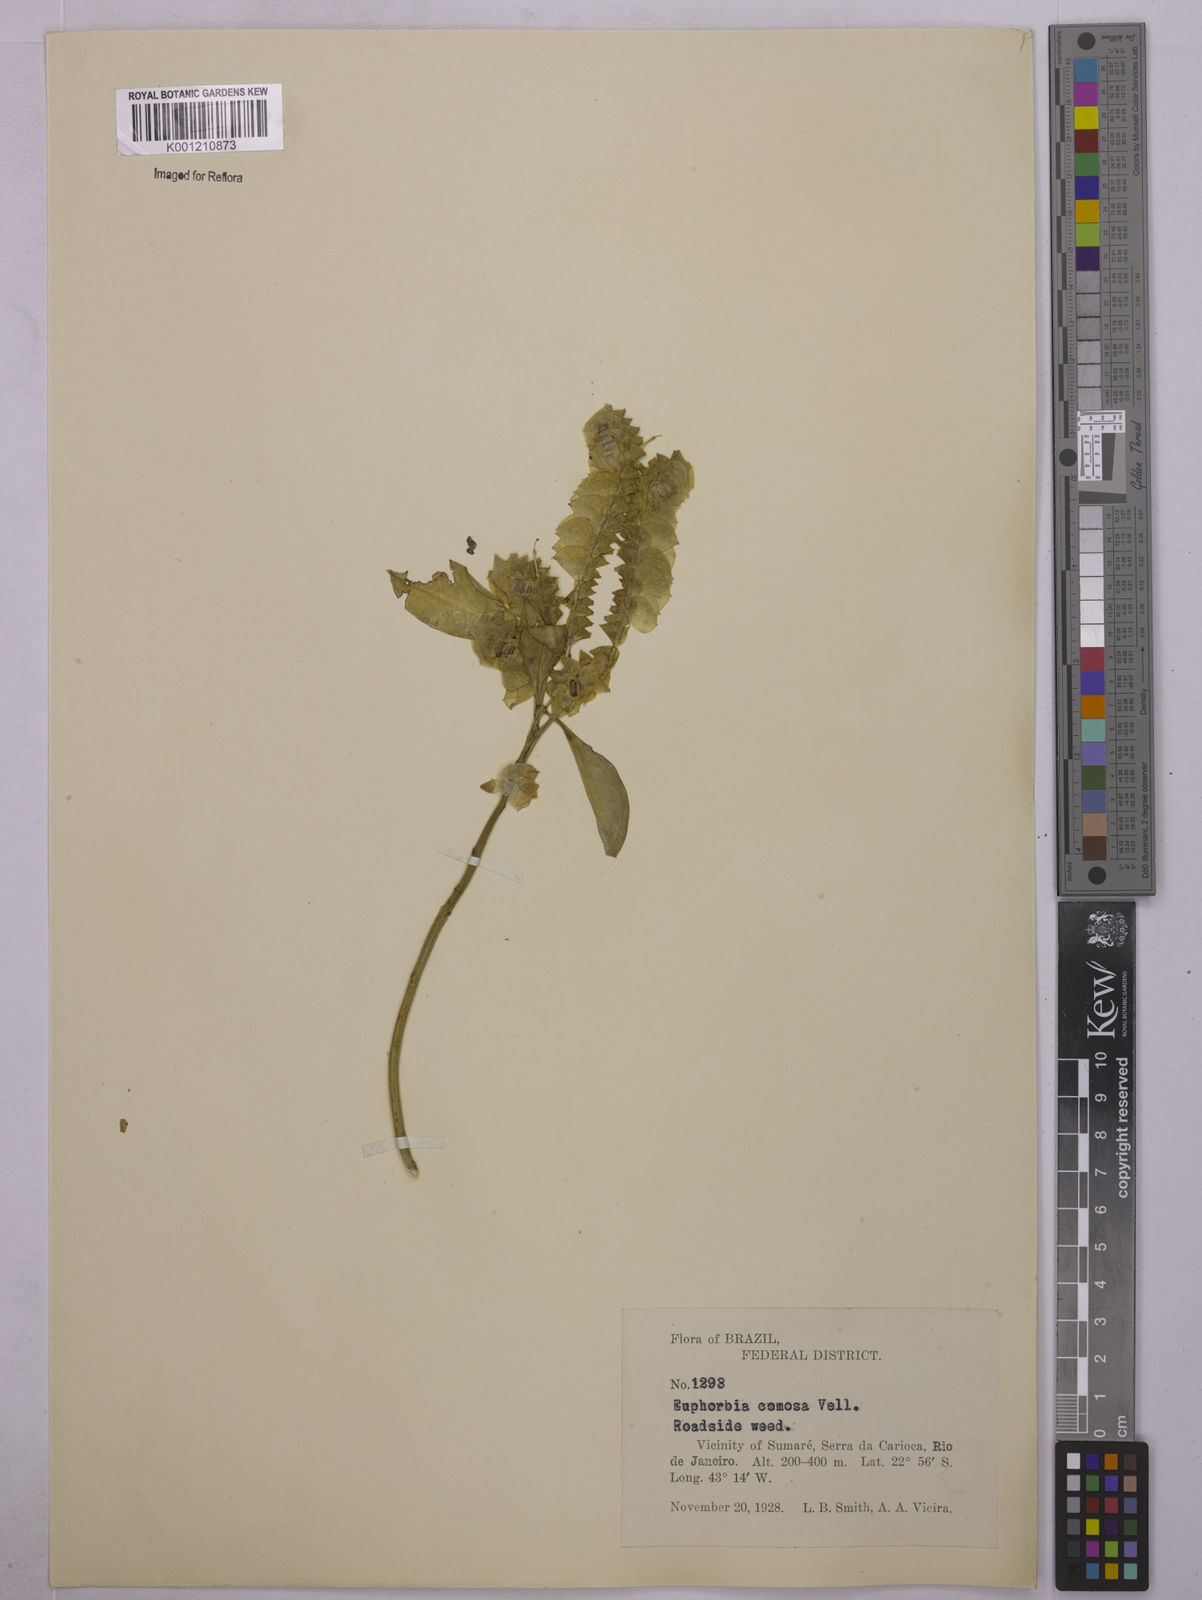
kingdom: Plantae
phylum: Tracheophyta
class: Magnoliopsida
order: Malpighiales
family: Euphorbiaceae
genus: Euphorbia
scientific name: Euphorbia comosa
